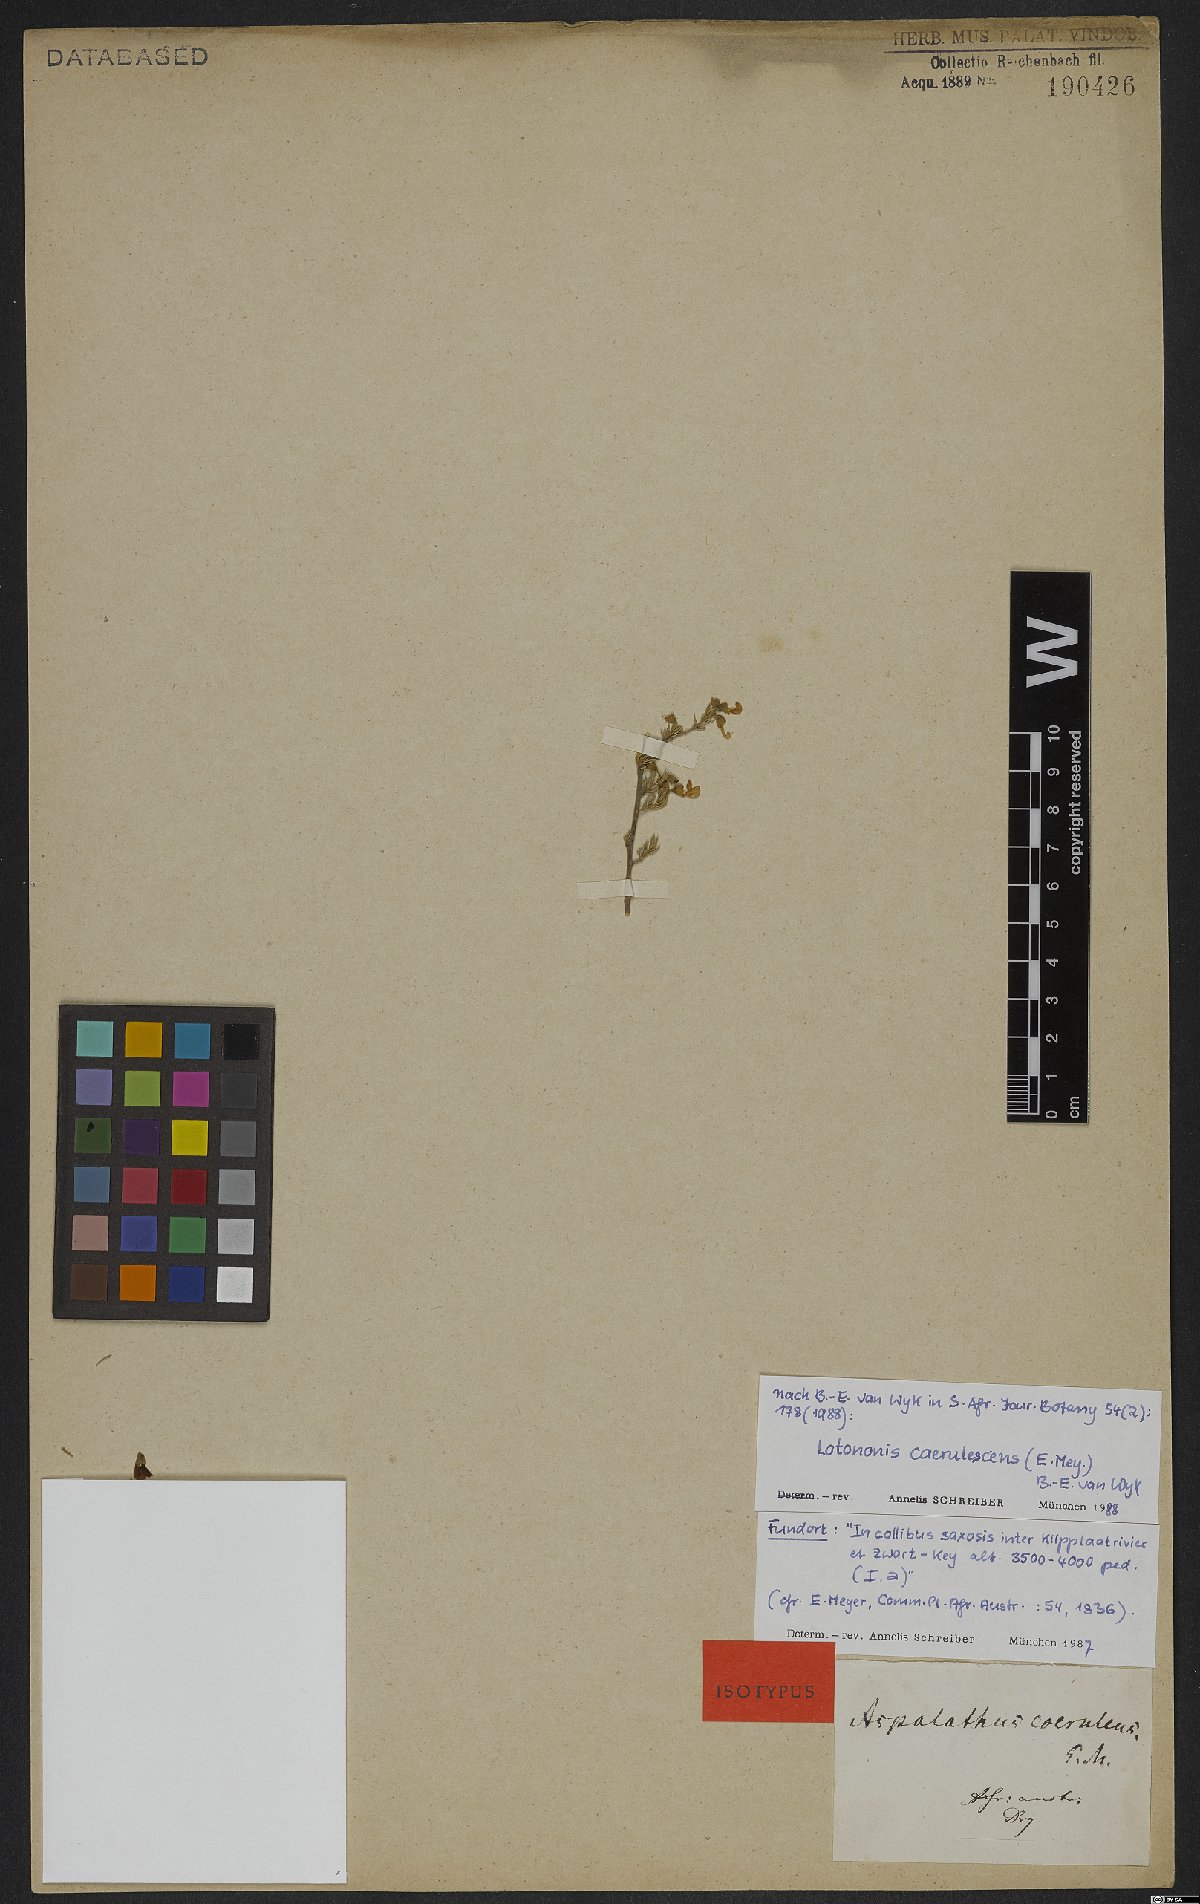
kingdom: Plantae
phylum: Tracheophyta
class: Magnoliopsida
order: Fabales
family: Fabaceae
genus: Lotononis
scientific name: Lotononis caerulescens
